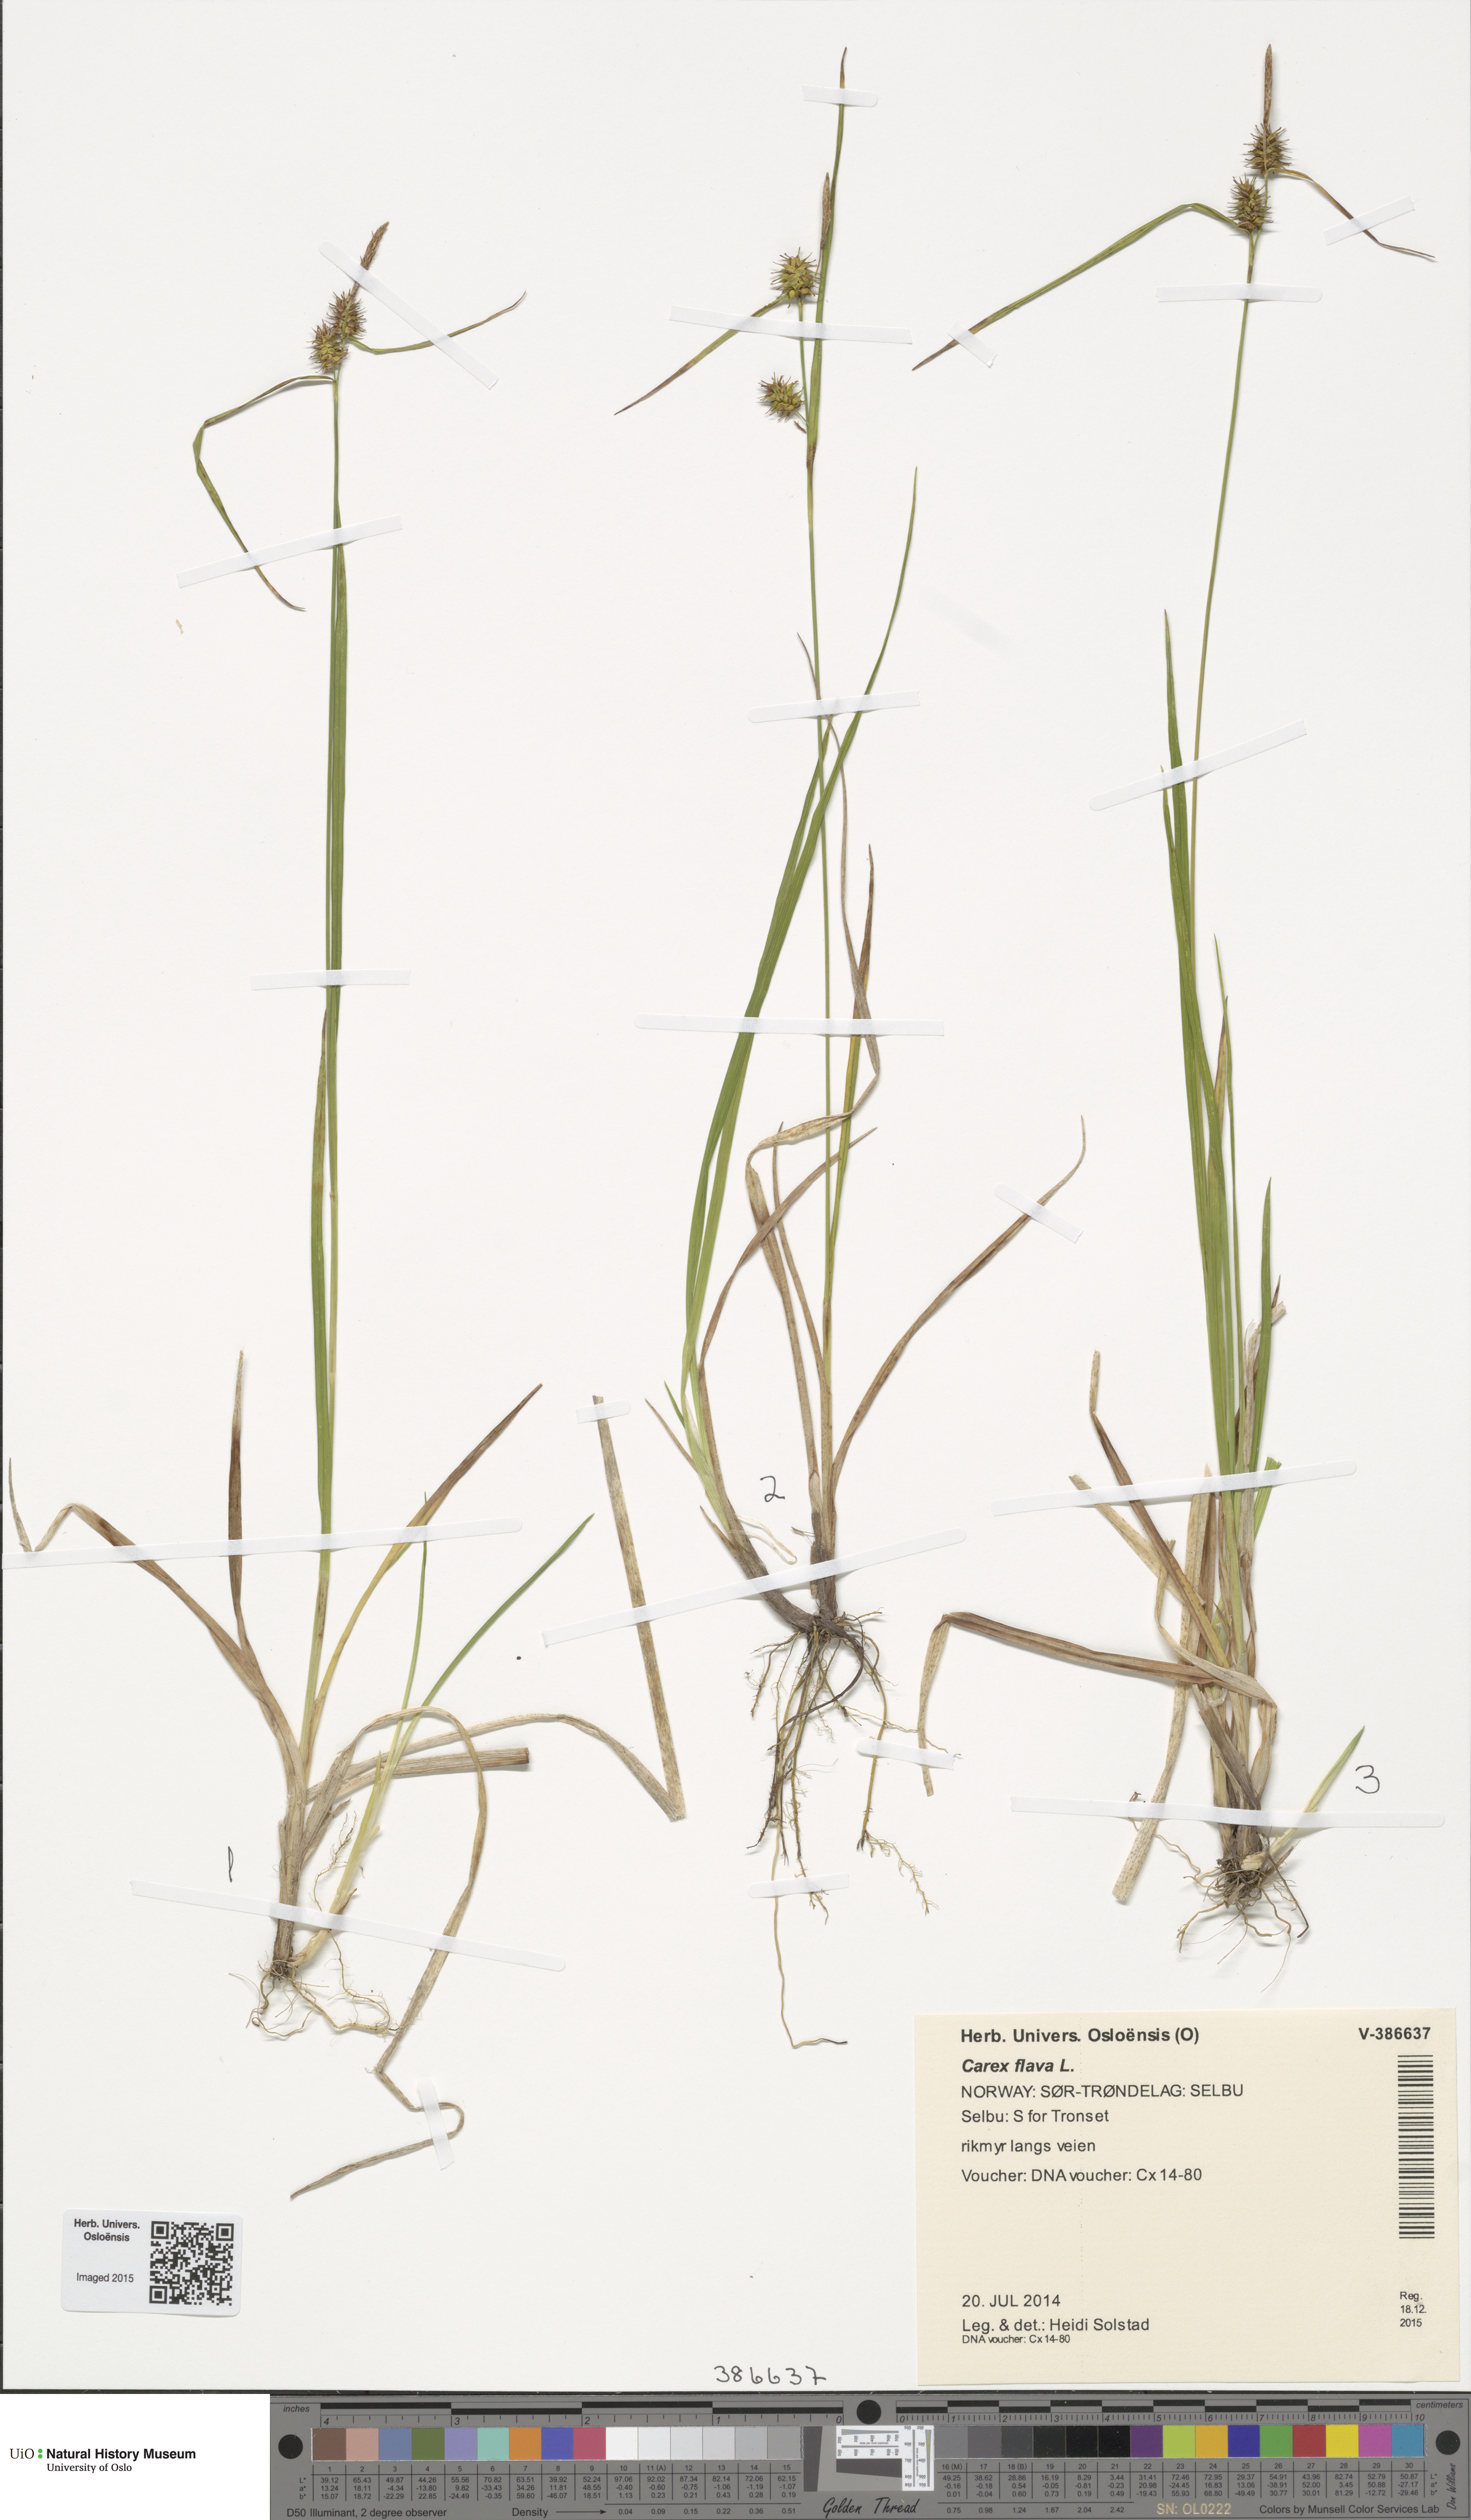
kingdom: Plantae
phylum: Tracheophyta
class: Liliopsida
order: Poales
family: Cyperaceae
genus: Carex
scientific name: Carex flava
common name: Large yellow-sedge
